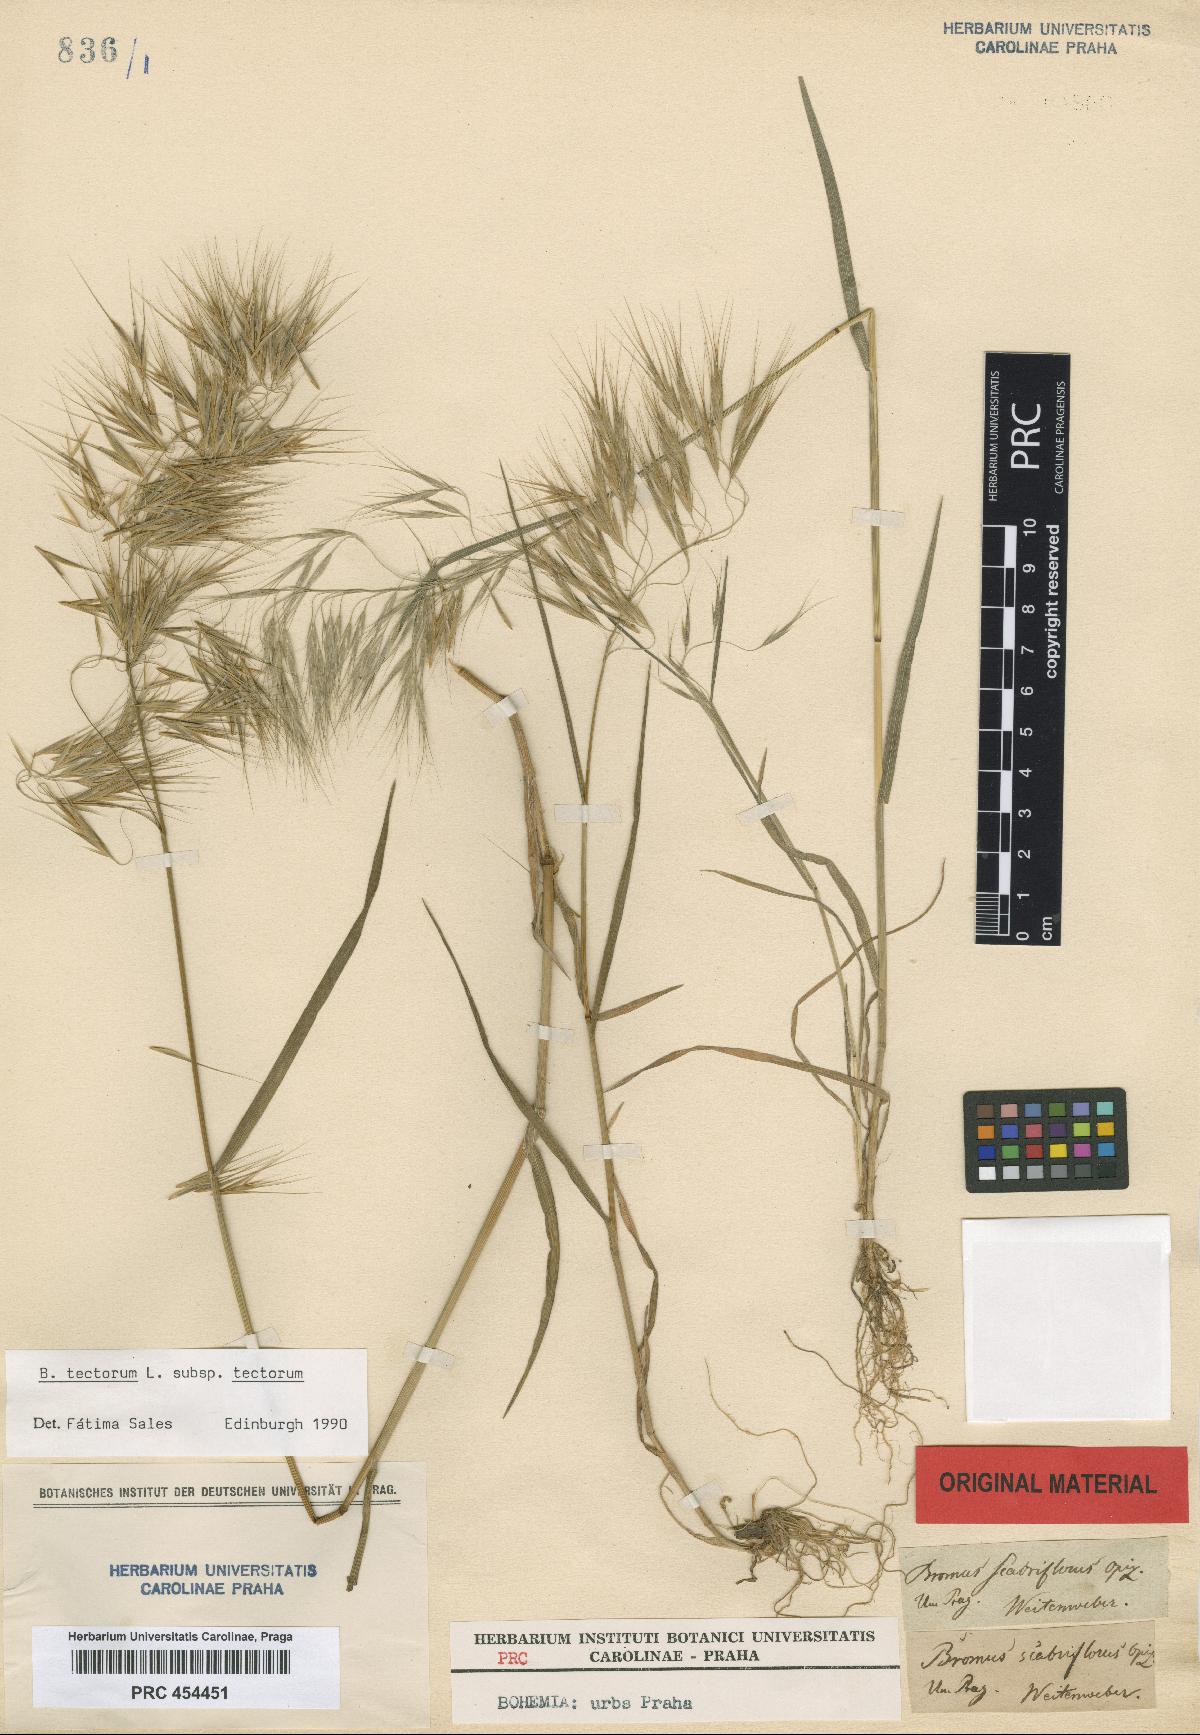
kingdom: Plantae
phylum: Tracheophyta
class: Liliopsida
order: Poales
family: Poaceae
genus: Bromus
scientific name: Bromus tectorum
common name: Cheatgrass
